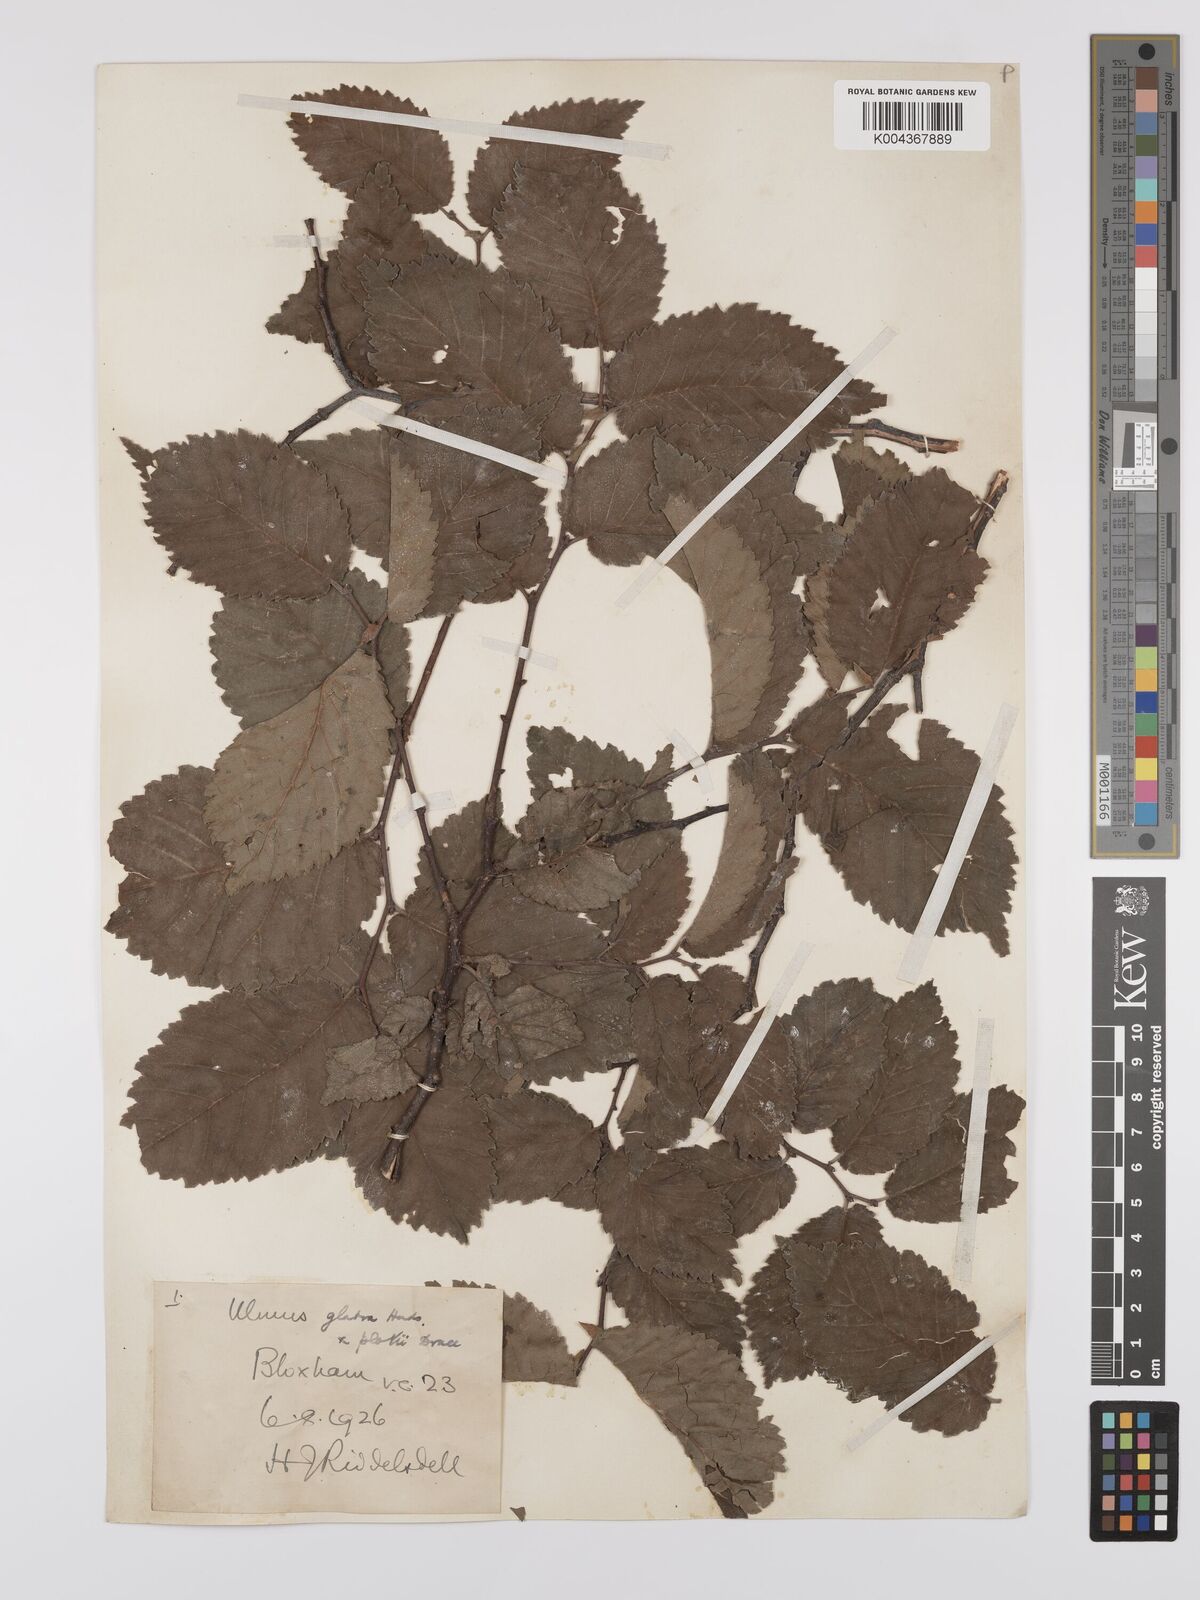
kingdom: Plantae
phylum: Tracheophyta
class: Magnoliopsida
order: Rosales
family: Ulmaceae
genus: Ulmus
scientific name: Ulmus glabra
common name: Wych elm
